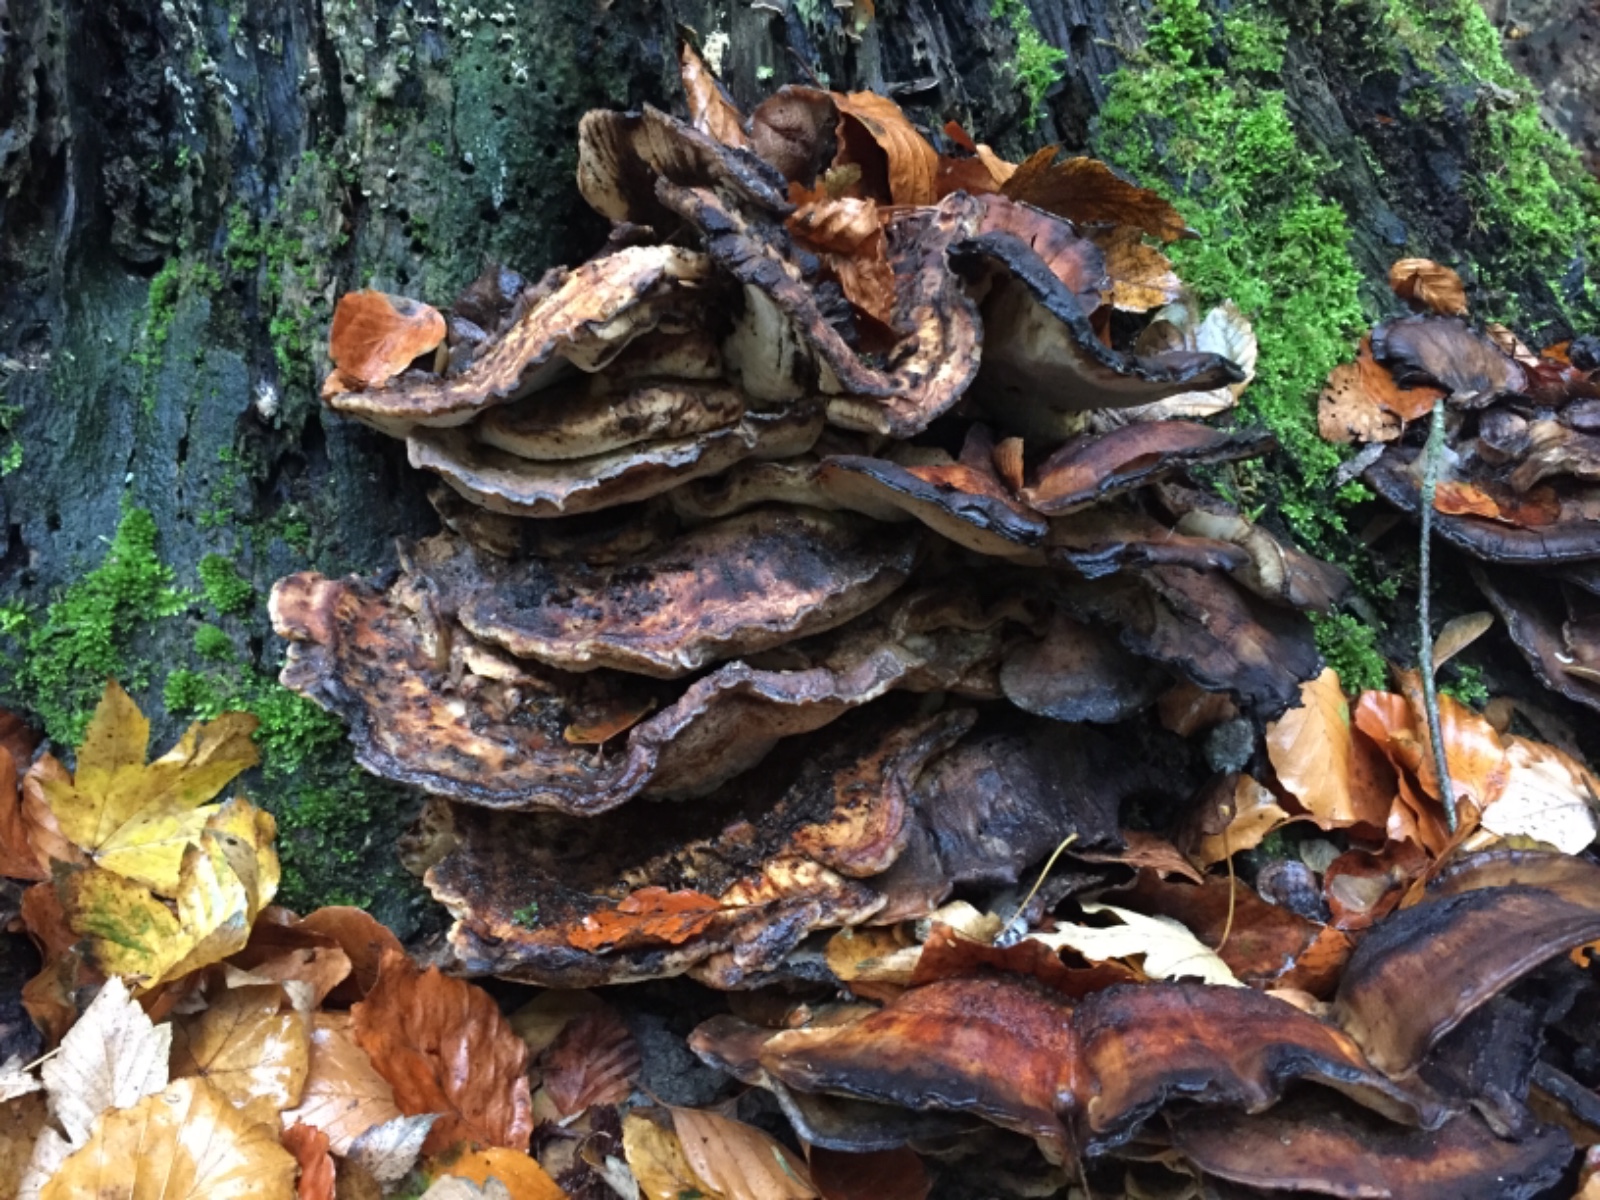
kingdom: Fungi
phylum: Basidiomycota
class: Agaricomycetes
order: Polyporales
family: Meripilaceae
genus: Meripilus
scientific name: Meripilus giganteus
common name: kæmpeporesvamp
